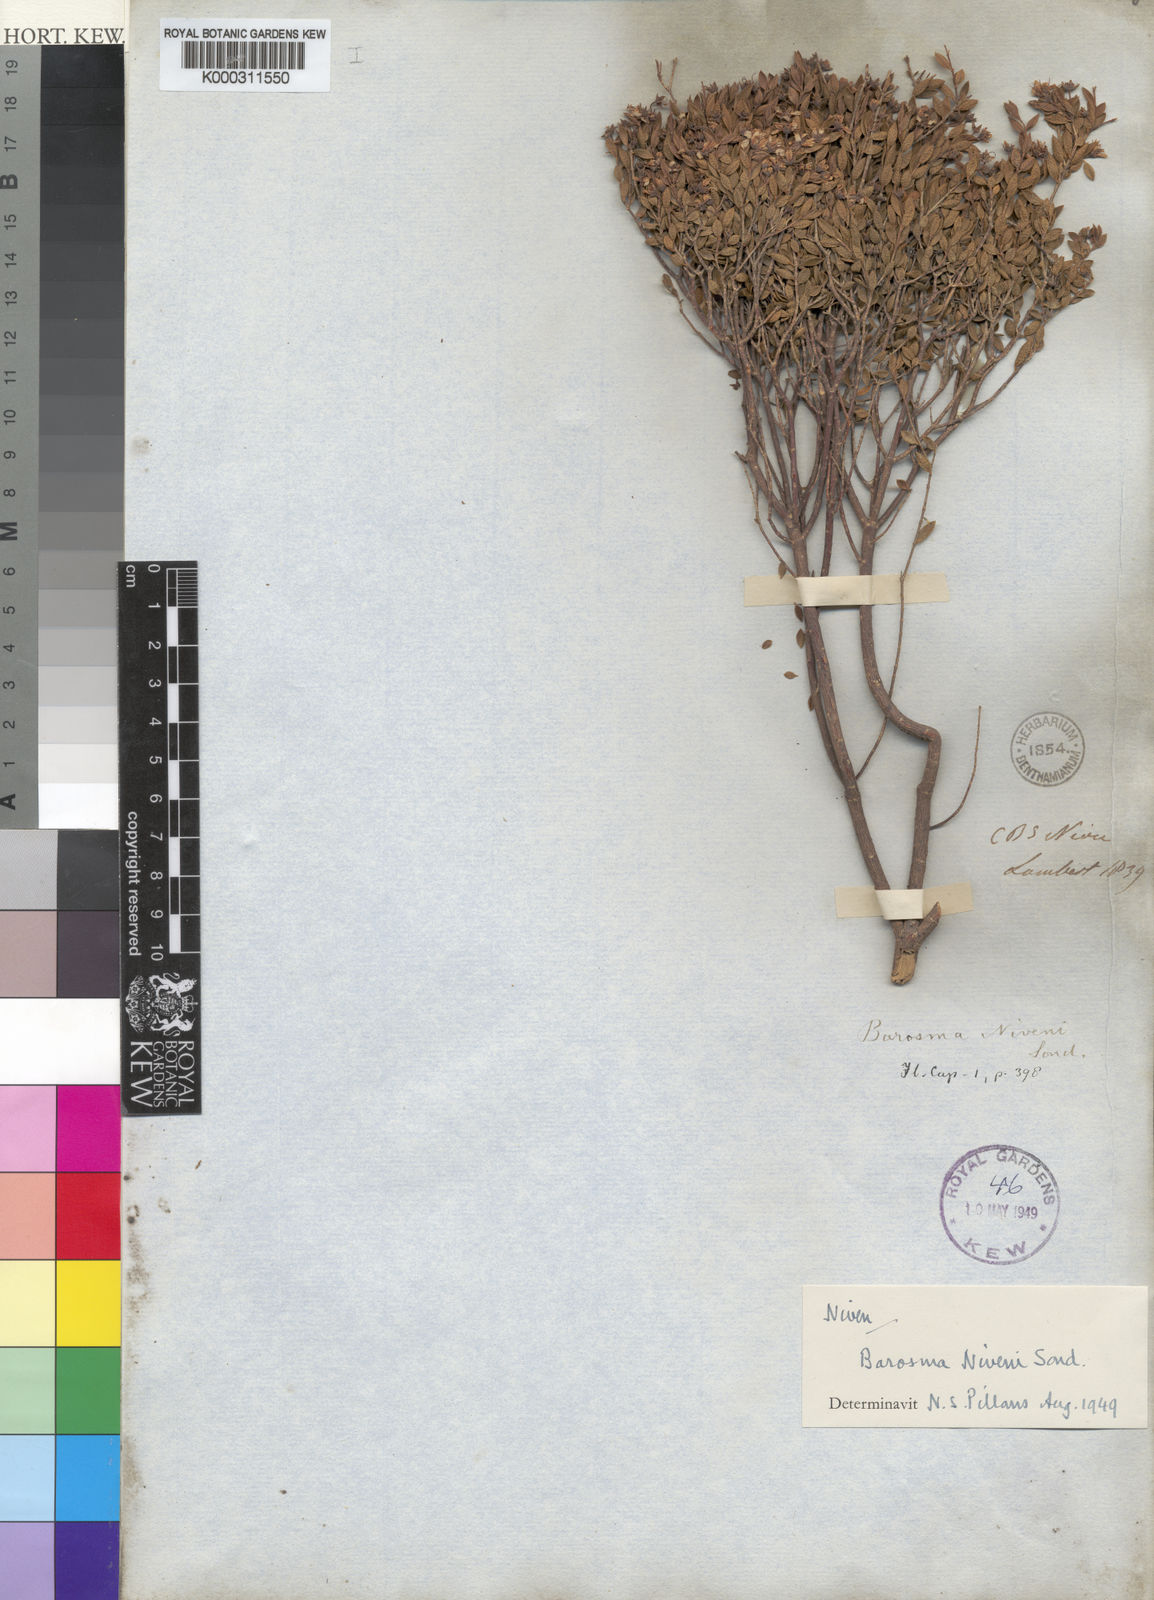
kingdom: Plantae
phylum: Tracheophyta
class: Magnoliopsida
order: Sapindales
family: Rutaceae
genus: Agathosma
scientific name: Agathosma mundii
